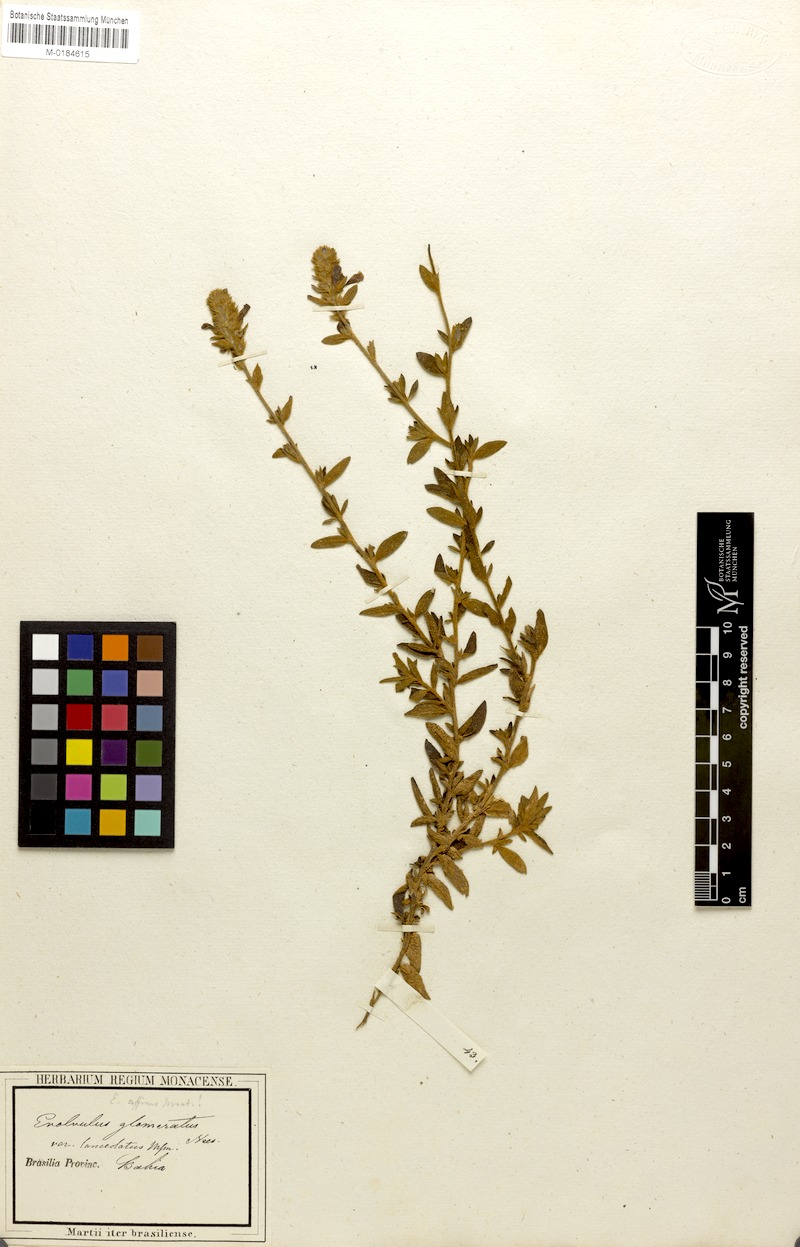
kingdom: Plantae
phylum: Tracheophyta
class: Magnoliopsida
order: Solanales
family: Convolvulaceae
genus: Evolvulus
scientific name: Evolvulus glomeratus
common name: Brazilian dwarf morning-glory
